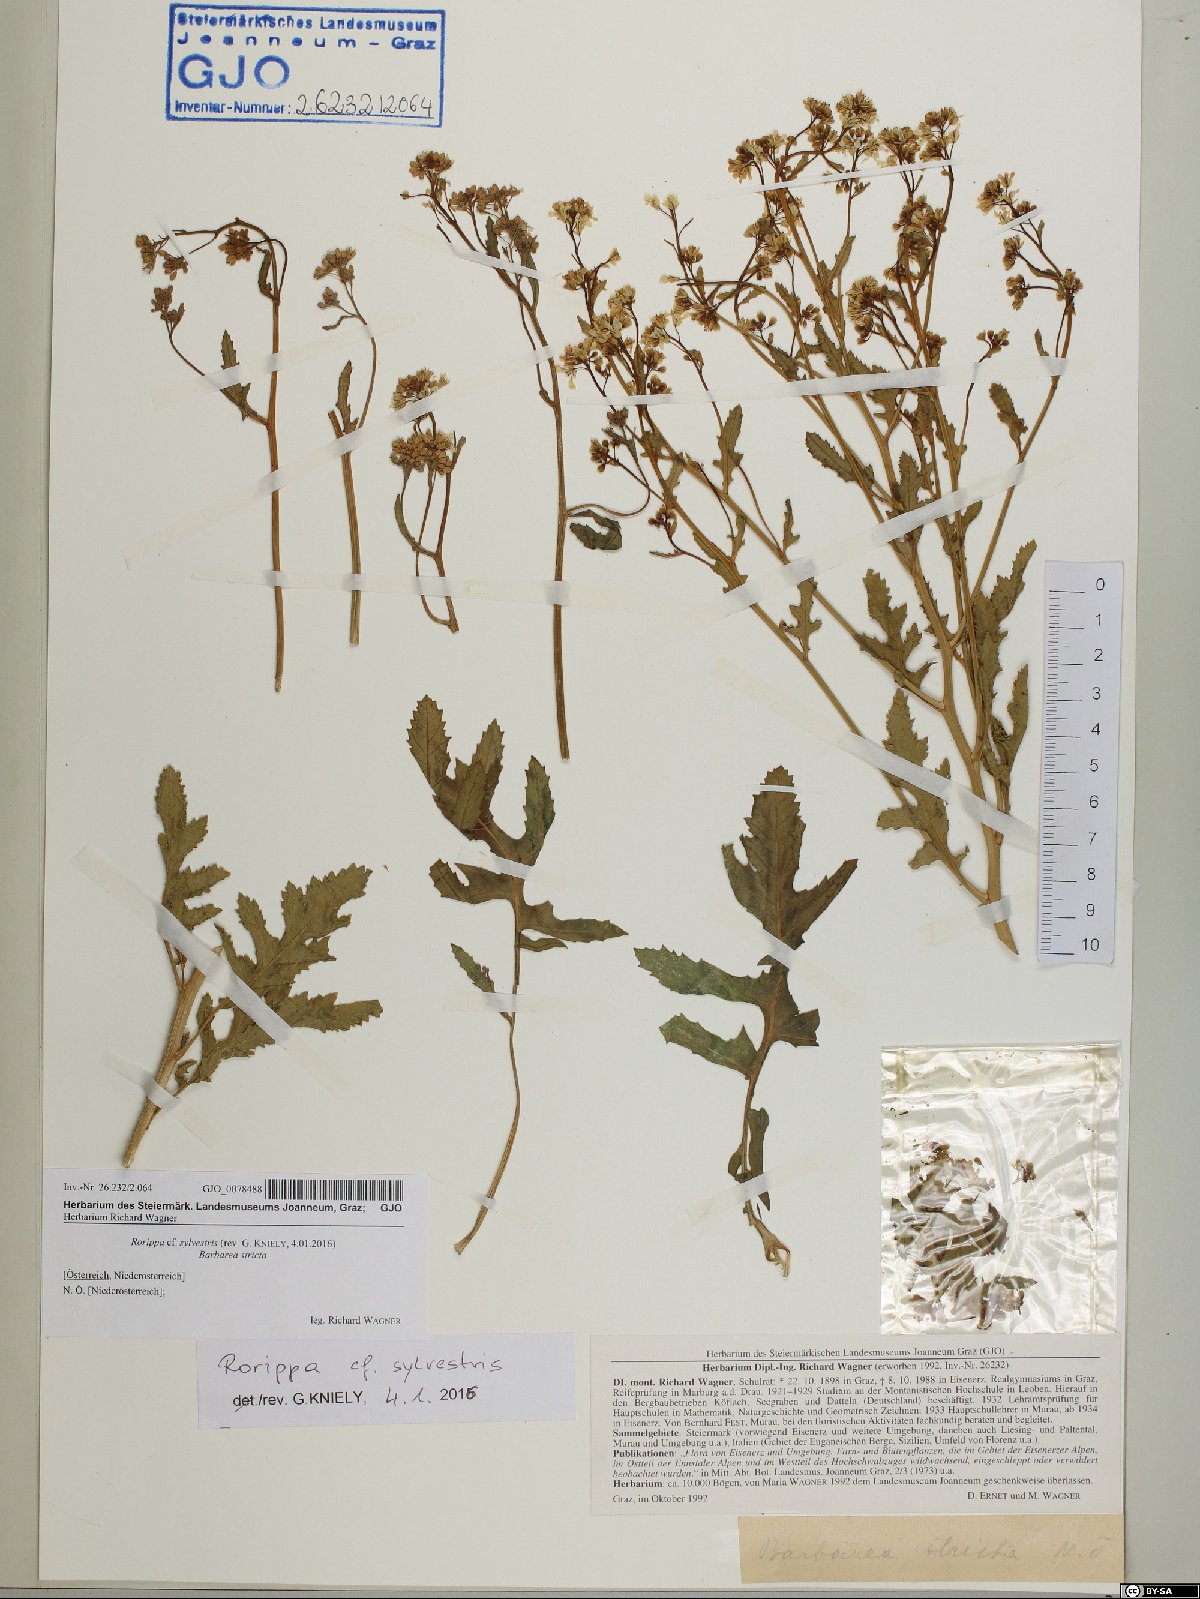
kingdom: Plantae
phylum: Tracheophyta
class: Magnoliopsida
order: Brassicales
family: Brassicaceae
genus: Rorippa
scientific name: Rorippa sylvestris
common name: Creeping yellowcress
